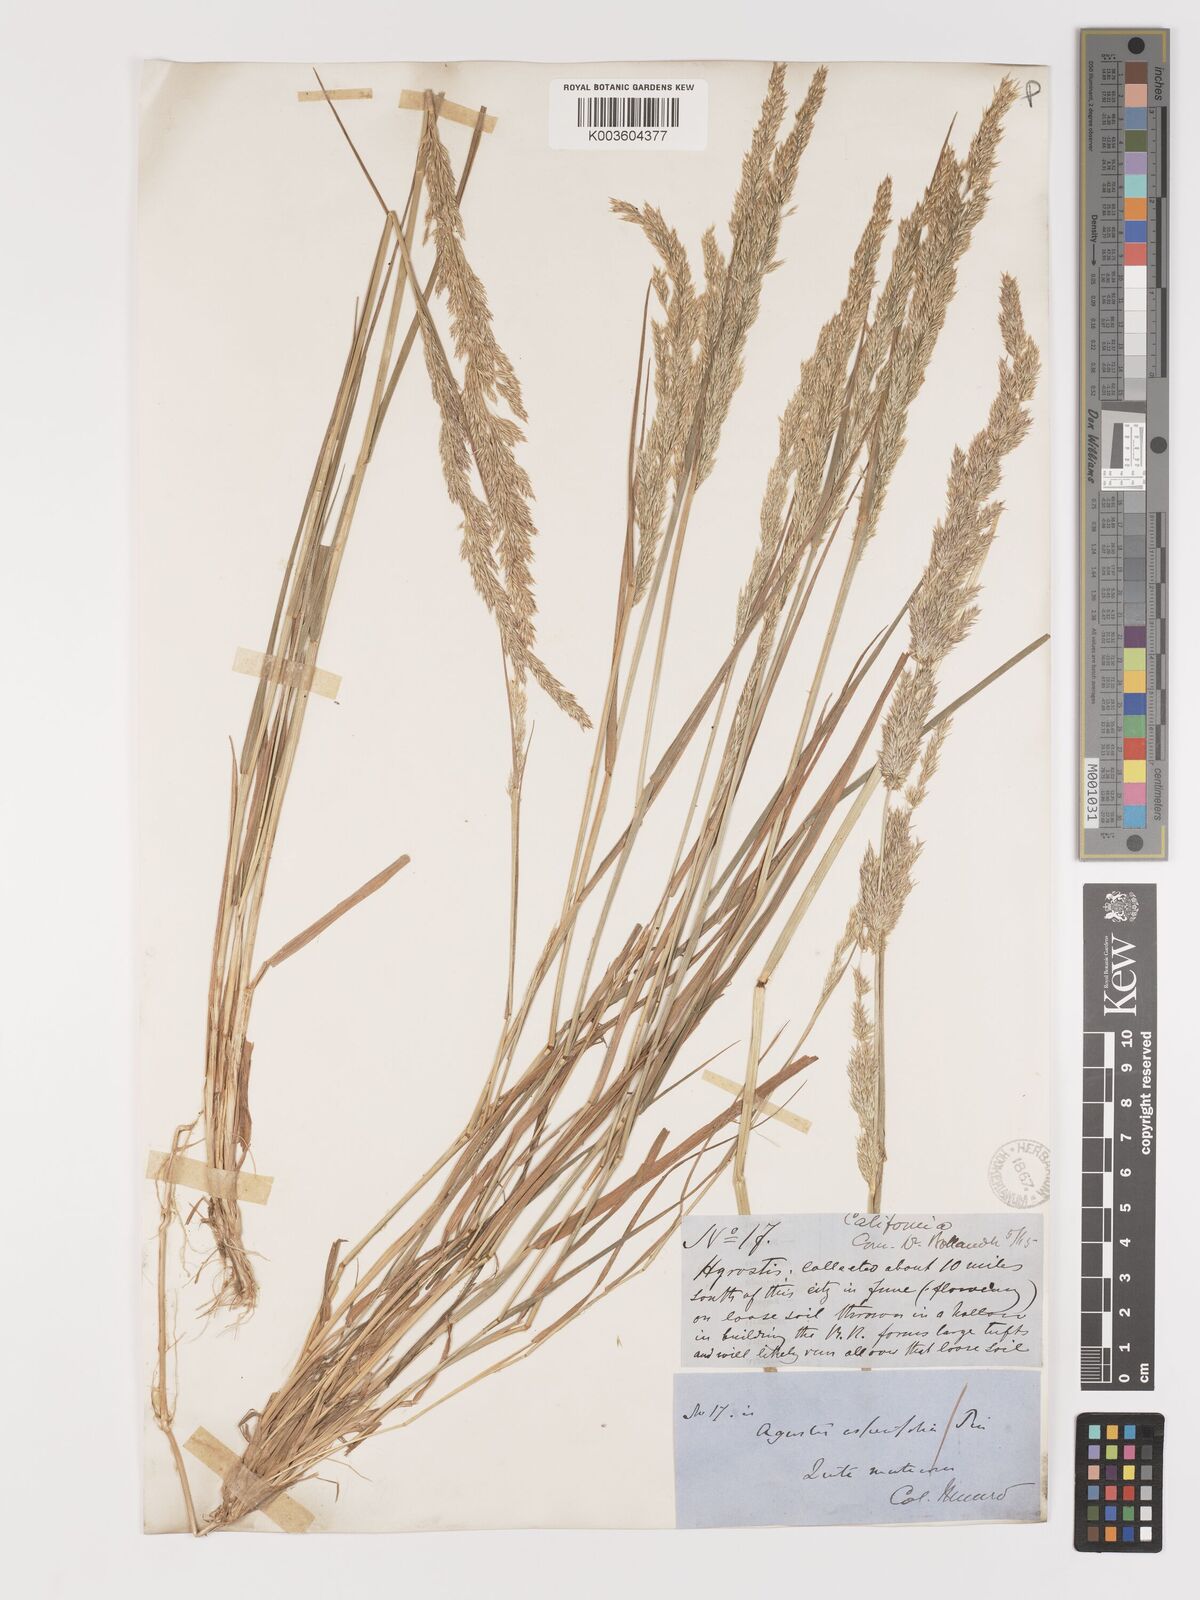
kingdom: Plantae
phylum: Tracheophyta
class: Liliopsida
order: Poales
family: Poaceae
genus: Agrostis
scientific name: Agrostis exarata
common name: Spike bent
